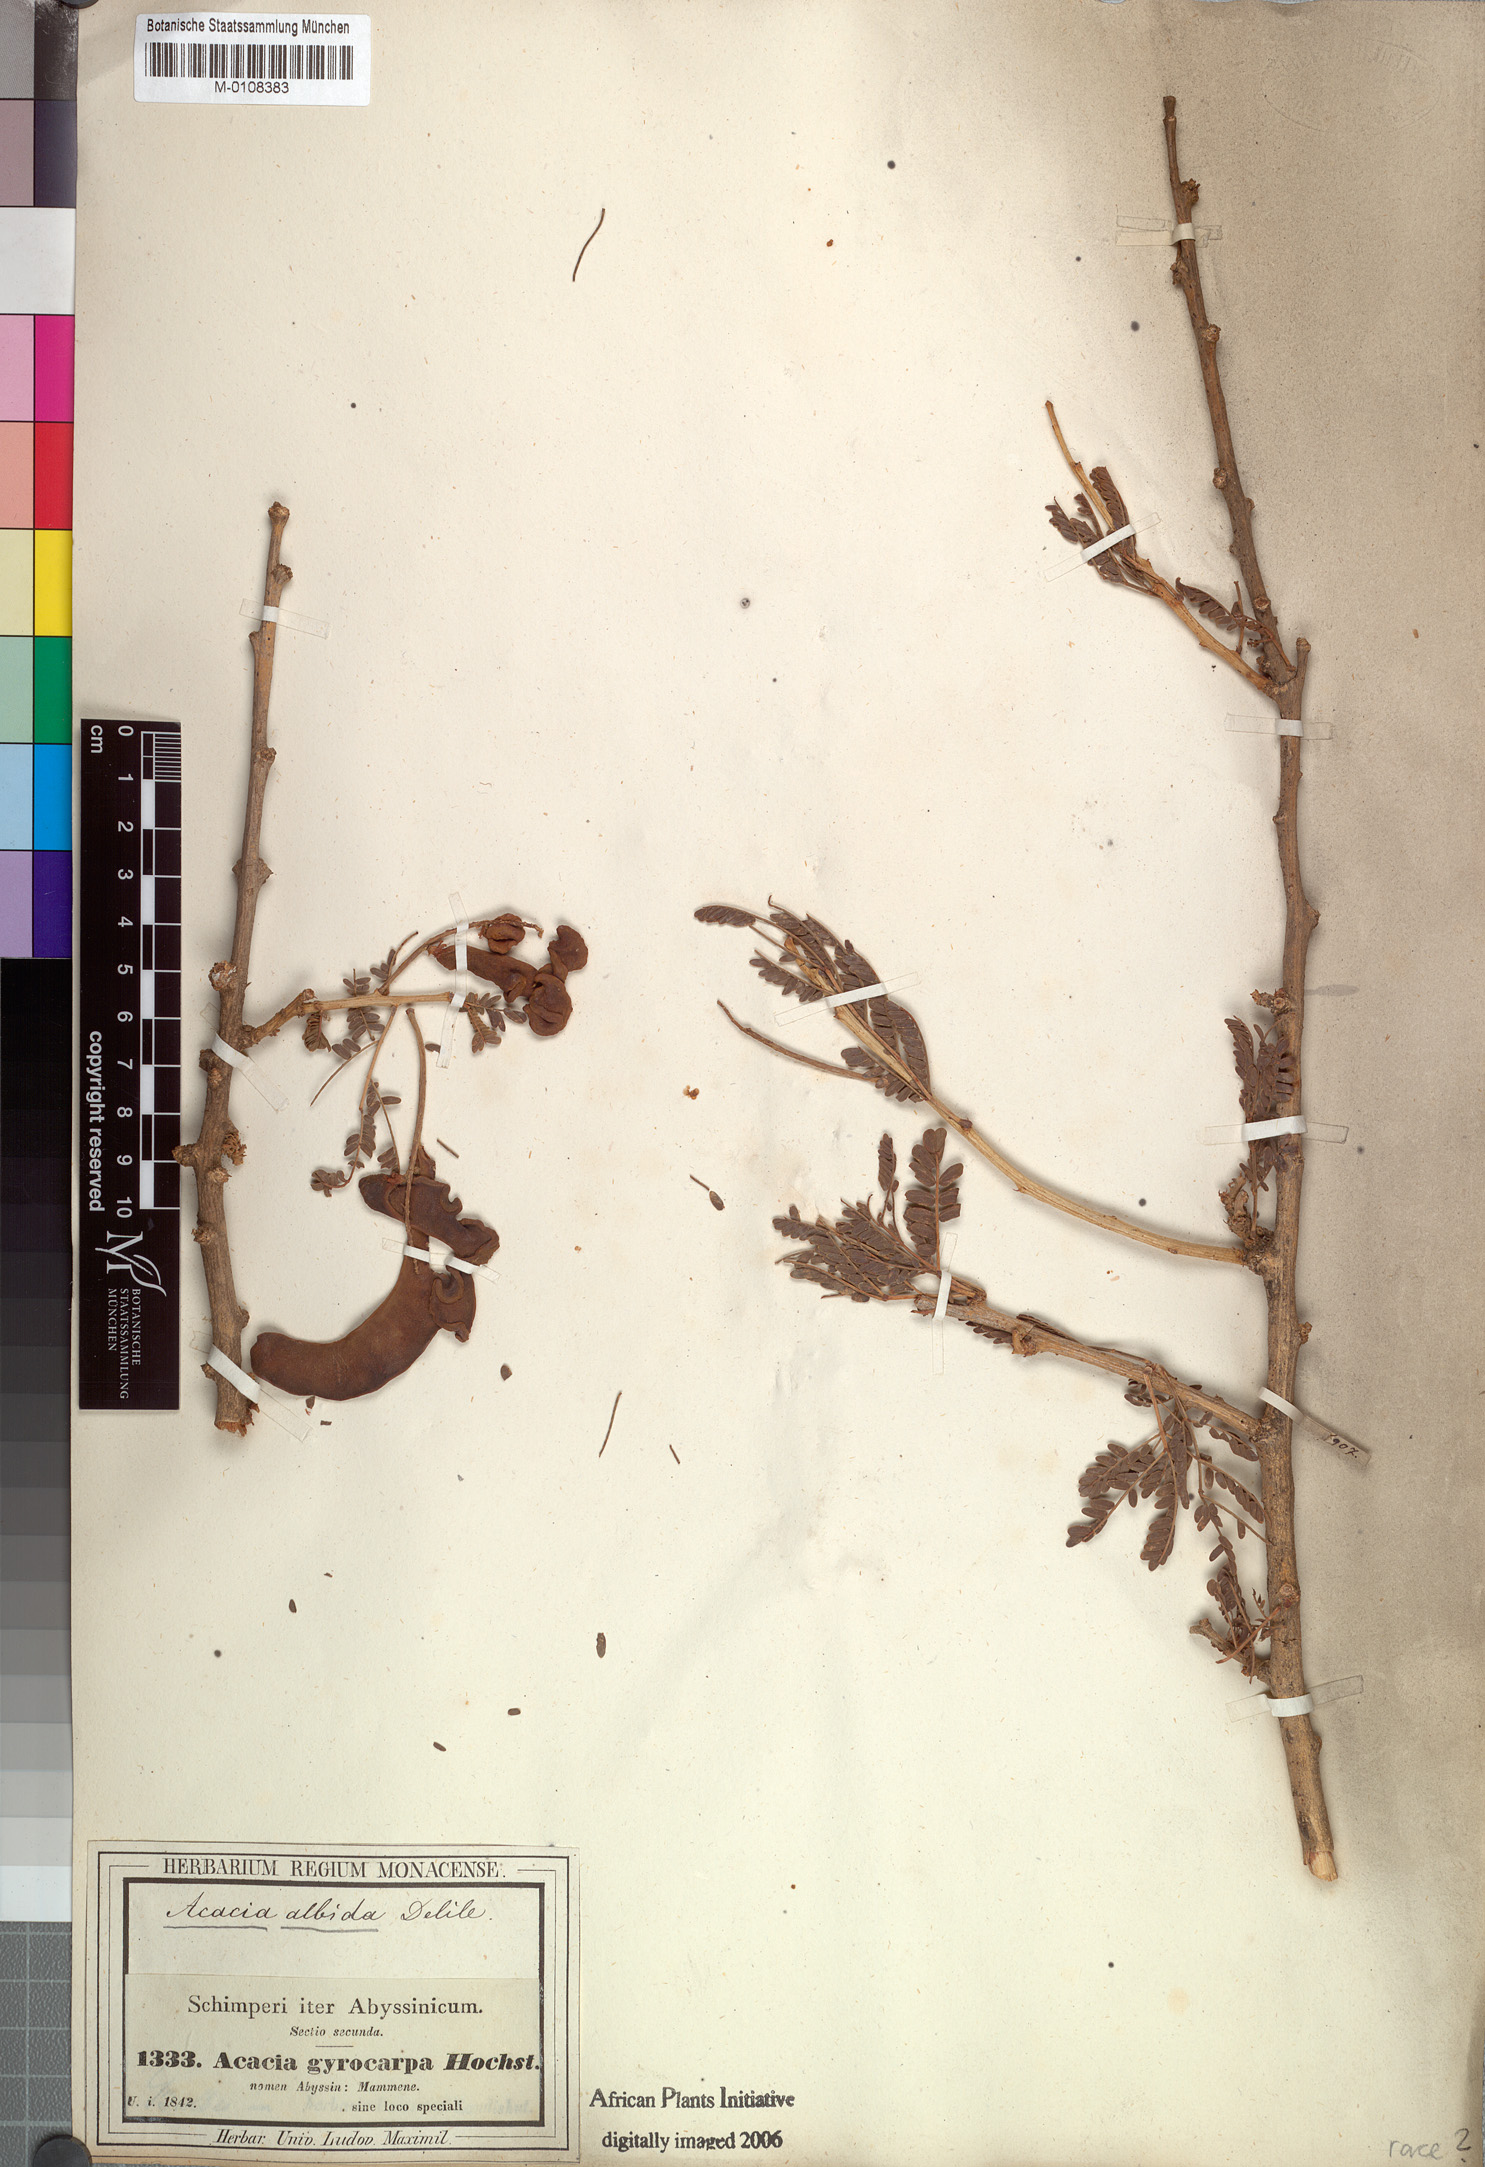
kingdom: Plantae
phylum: Tracheophyta
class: Magnoliopsida
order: Fabales
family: Fabaceae
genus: Faidherbia
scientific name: Faidherbia albida
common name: Anatree
